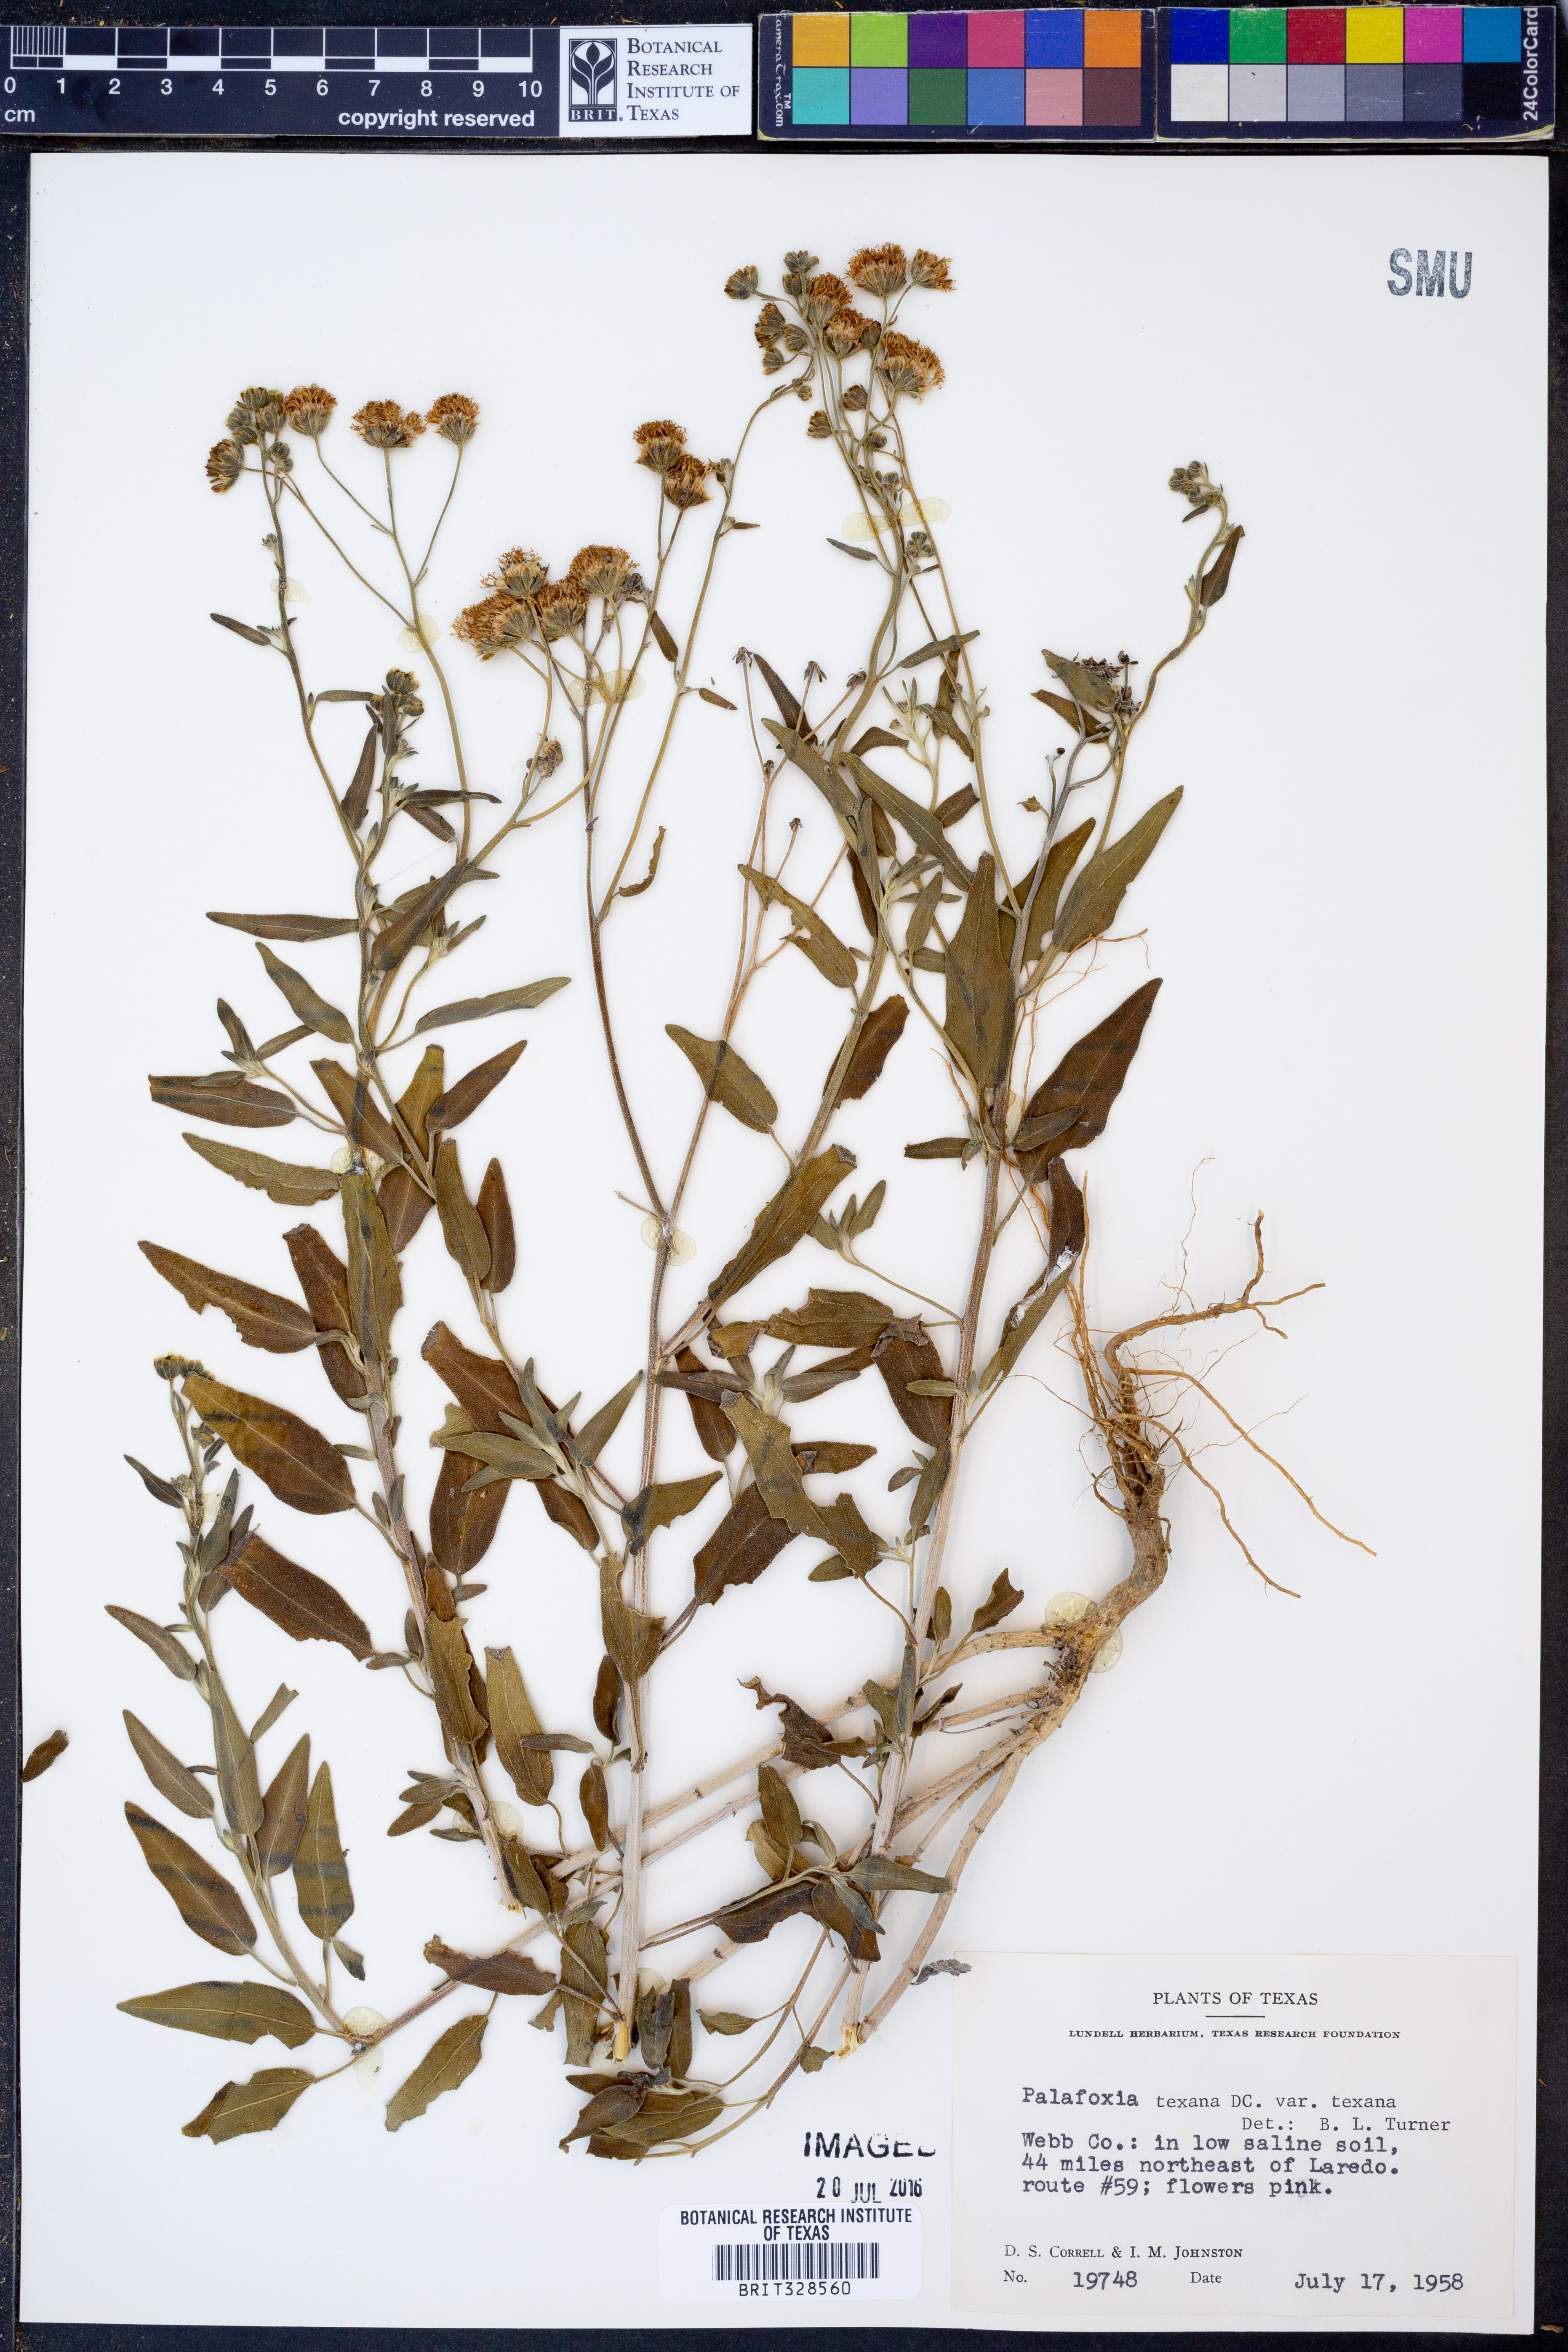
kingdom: Plantae
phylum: Tracheophyta
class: Magnoliopsida
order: Asterales
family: Asteraceae
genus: Palafoxia
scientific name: Palafoxia texana
